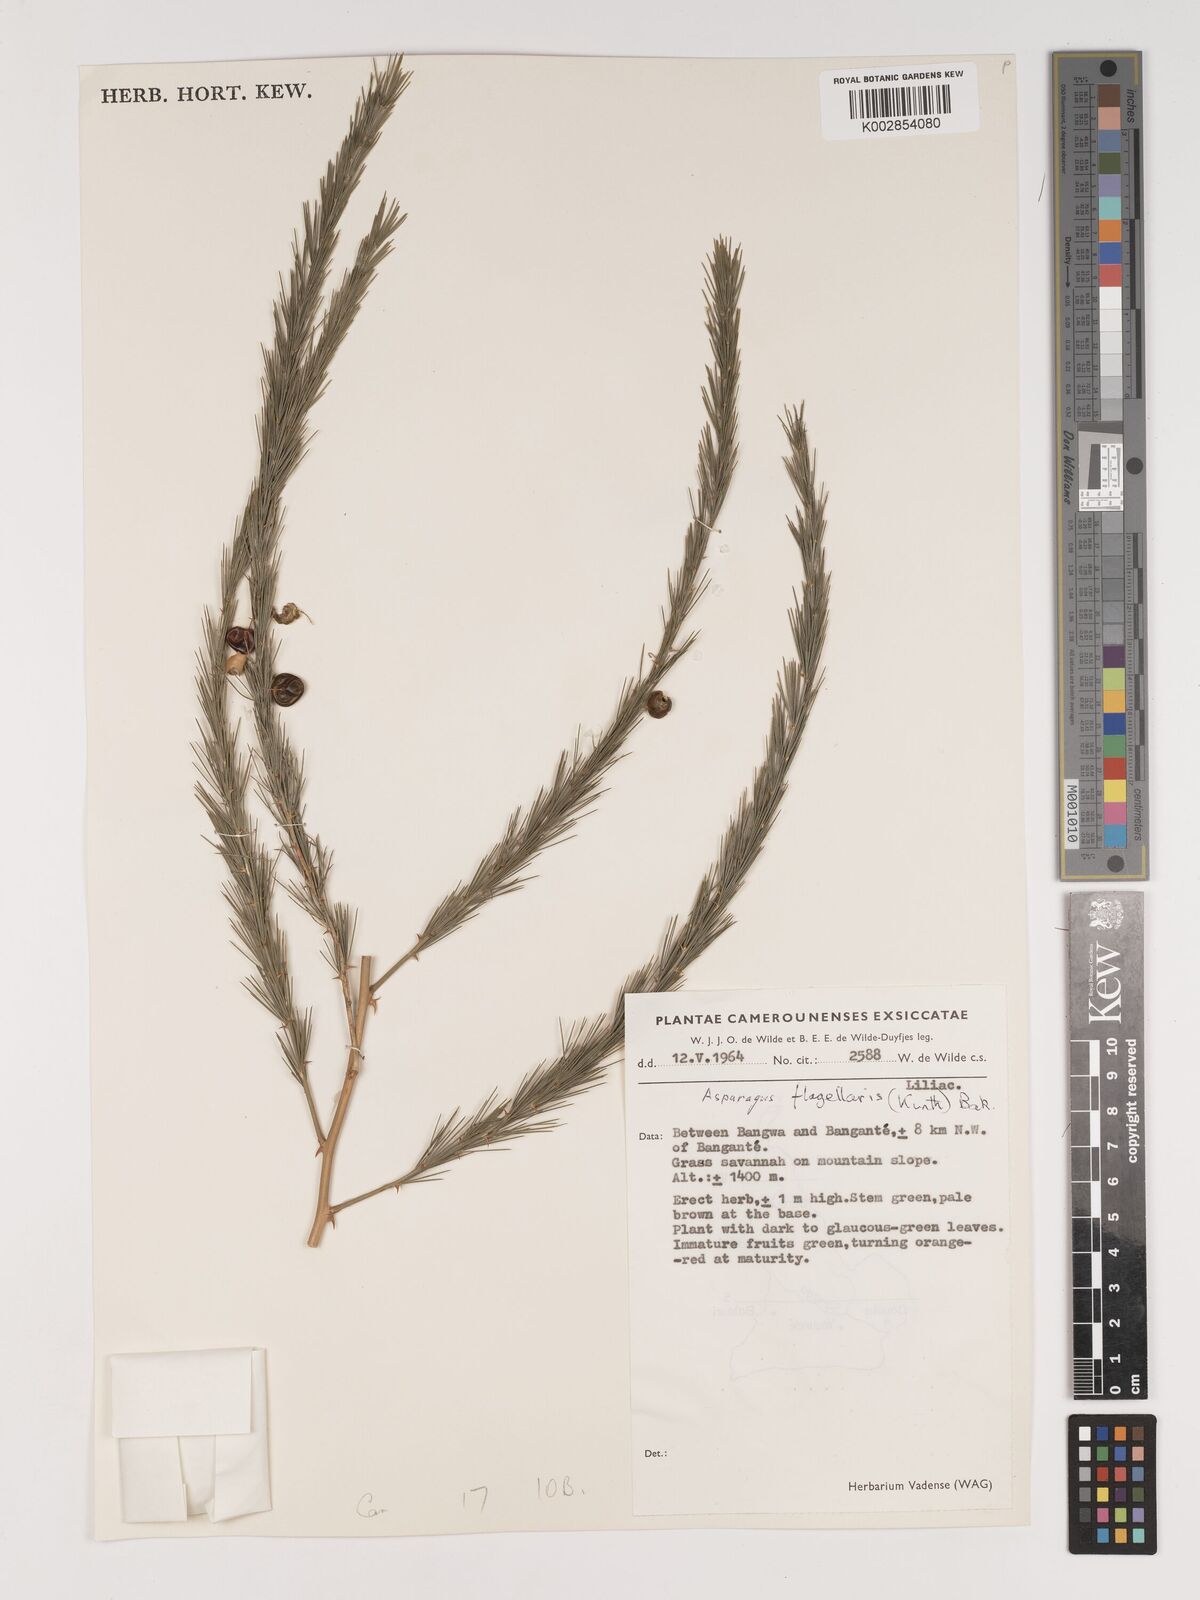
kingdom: Plantae
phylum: Tracheophyta
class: Liliopsida
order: Asparagales
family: Asparagaceae
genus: Asparagus
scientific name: Asparagus flagellaris
